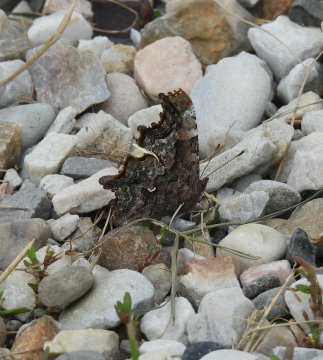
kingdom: Animalia
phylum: Arthropoda
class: Insecta
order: Lepidoptera
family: Nymphalidae
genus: Polygonia
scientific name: Polygonia faunus
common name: Green Comma
